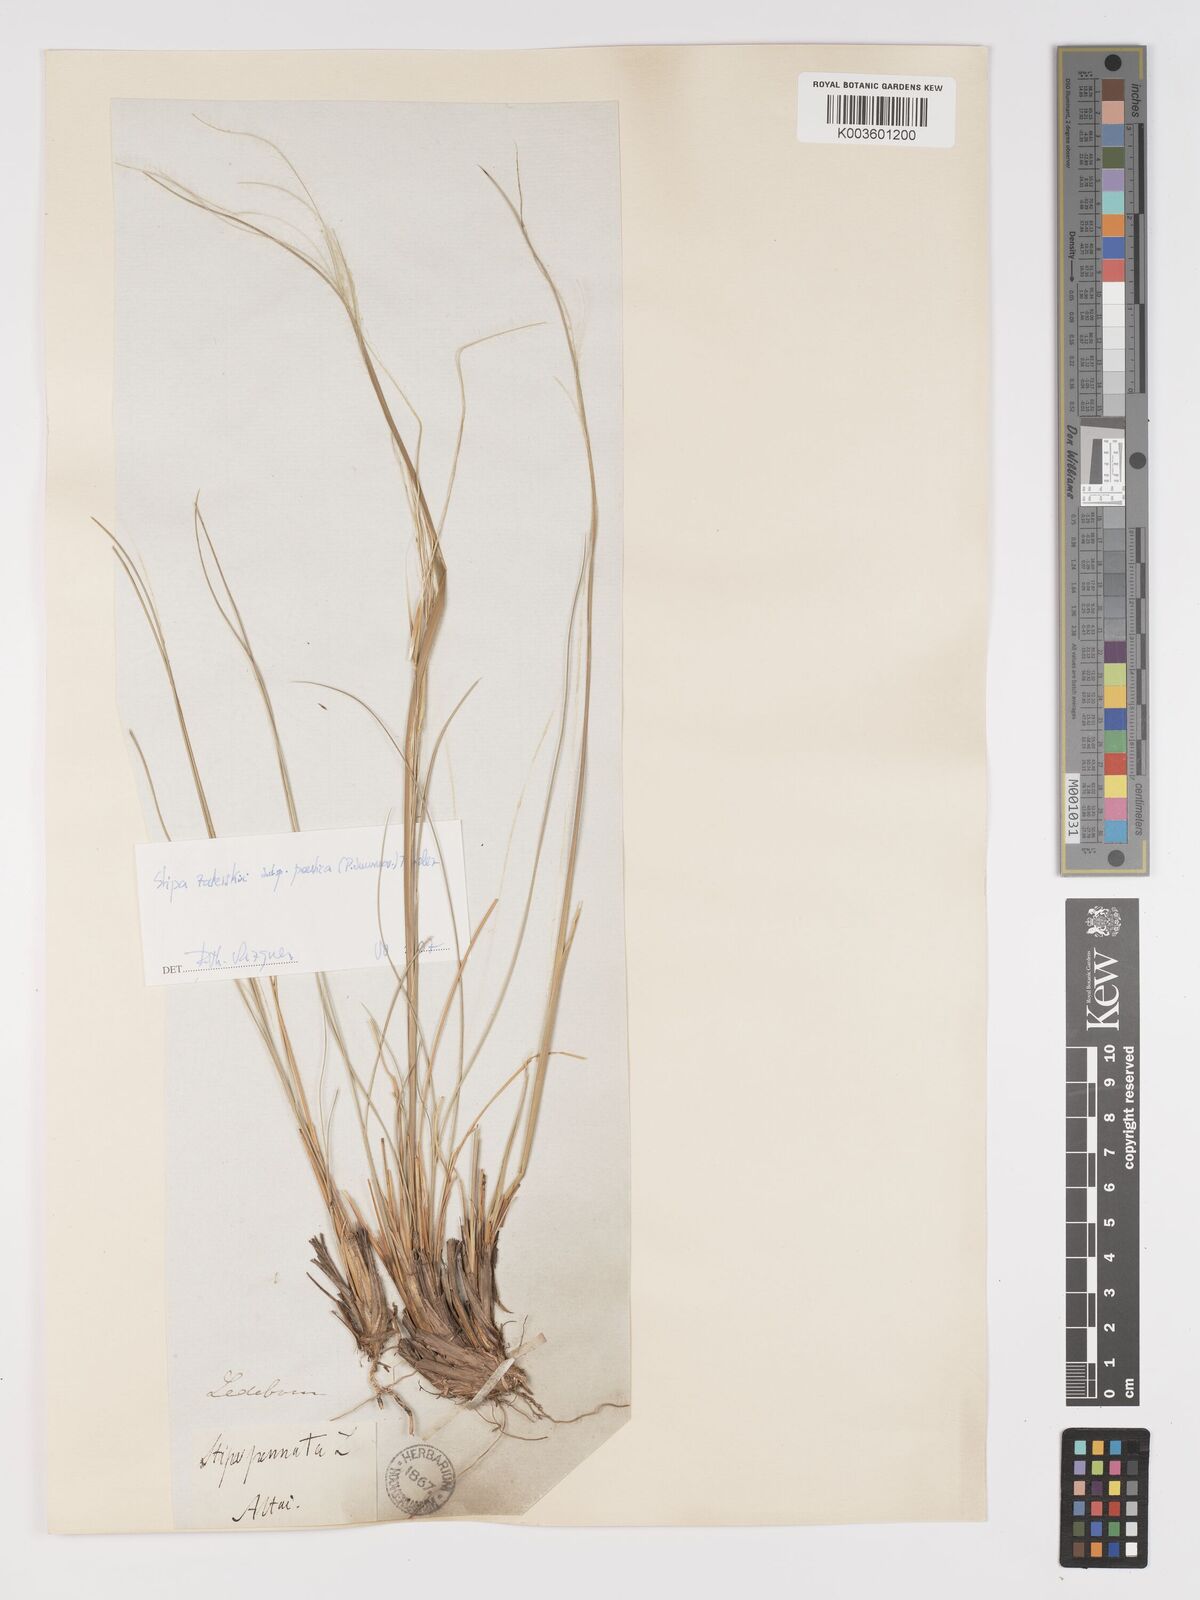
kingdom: Plantae
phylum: Tracheophyta
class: Liliopsida
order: Poales
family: Poaceae
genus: Stipa
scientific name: Stipa
